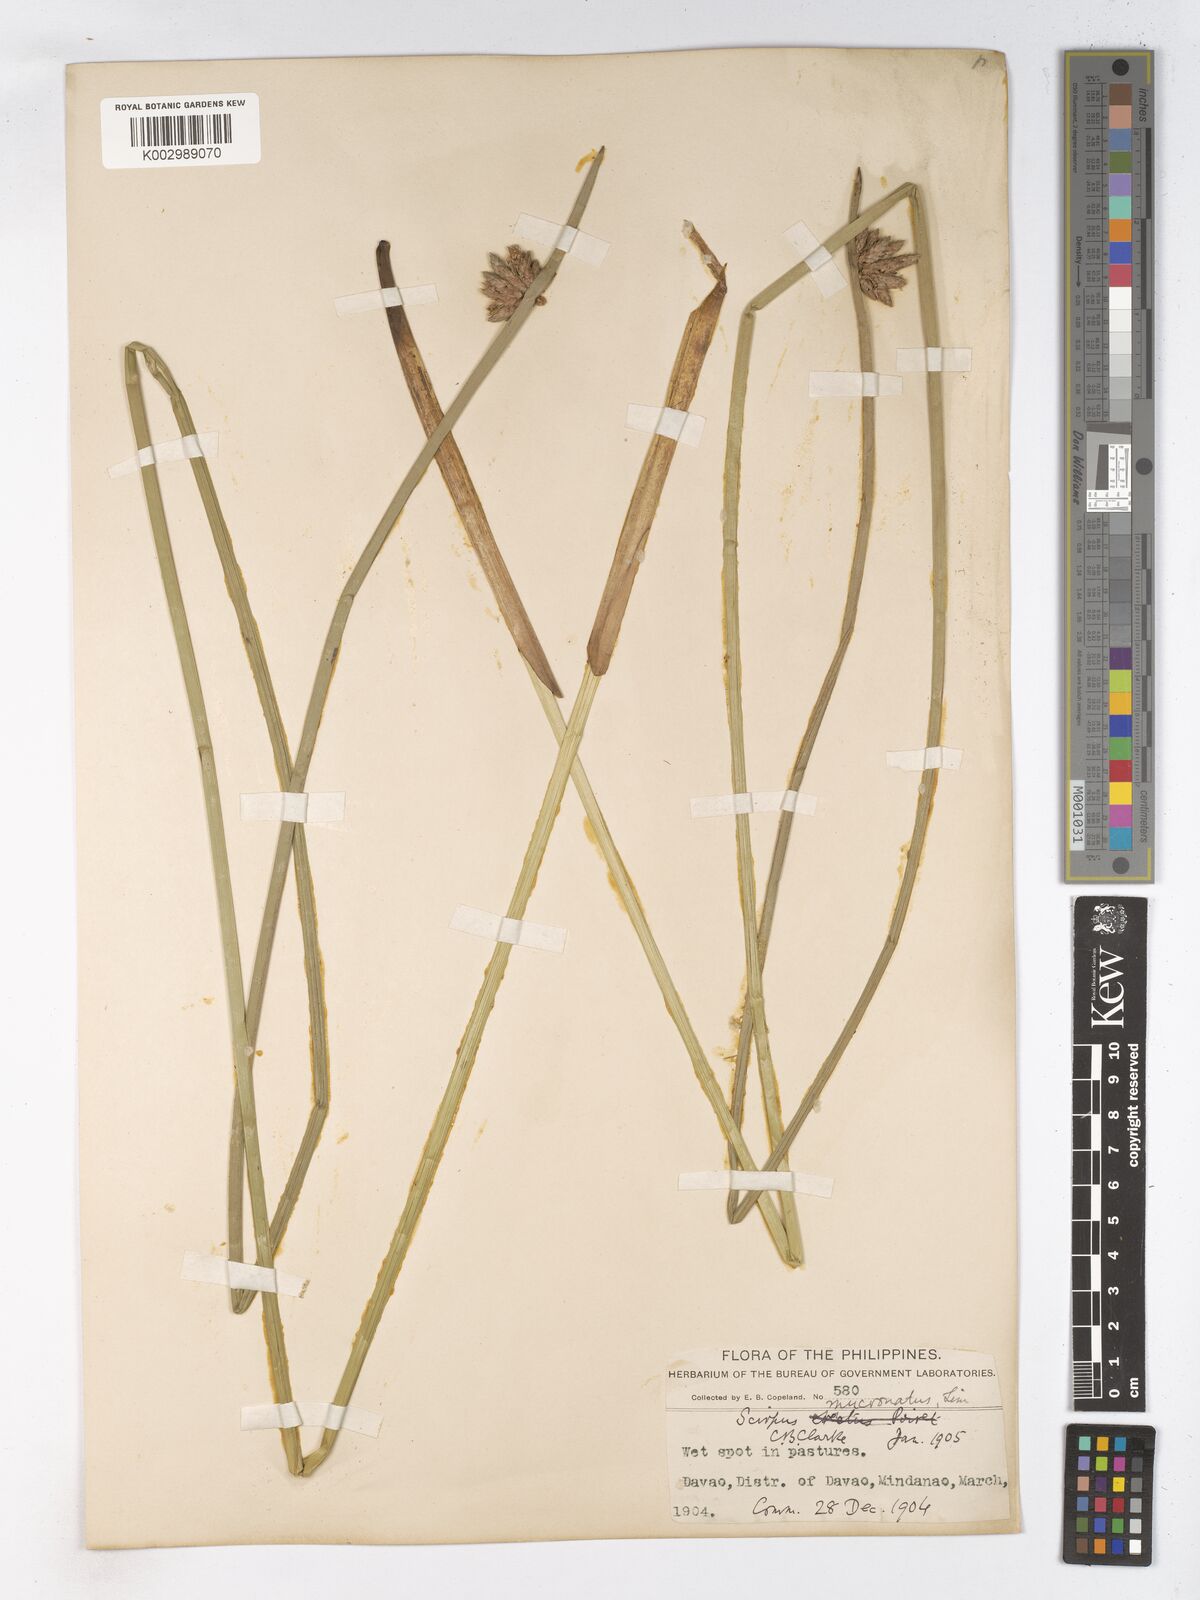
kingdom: Plantae
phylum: Tracheophyta
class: Liliopsida
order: Poales
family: Cyperaceae
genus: Schoenoplectiella
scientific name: Schoenoplectiella mucronata
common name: Bog bulrush
